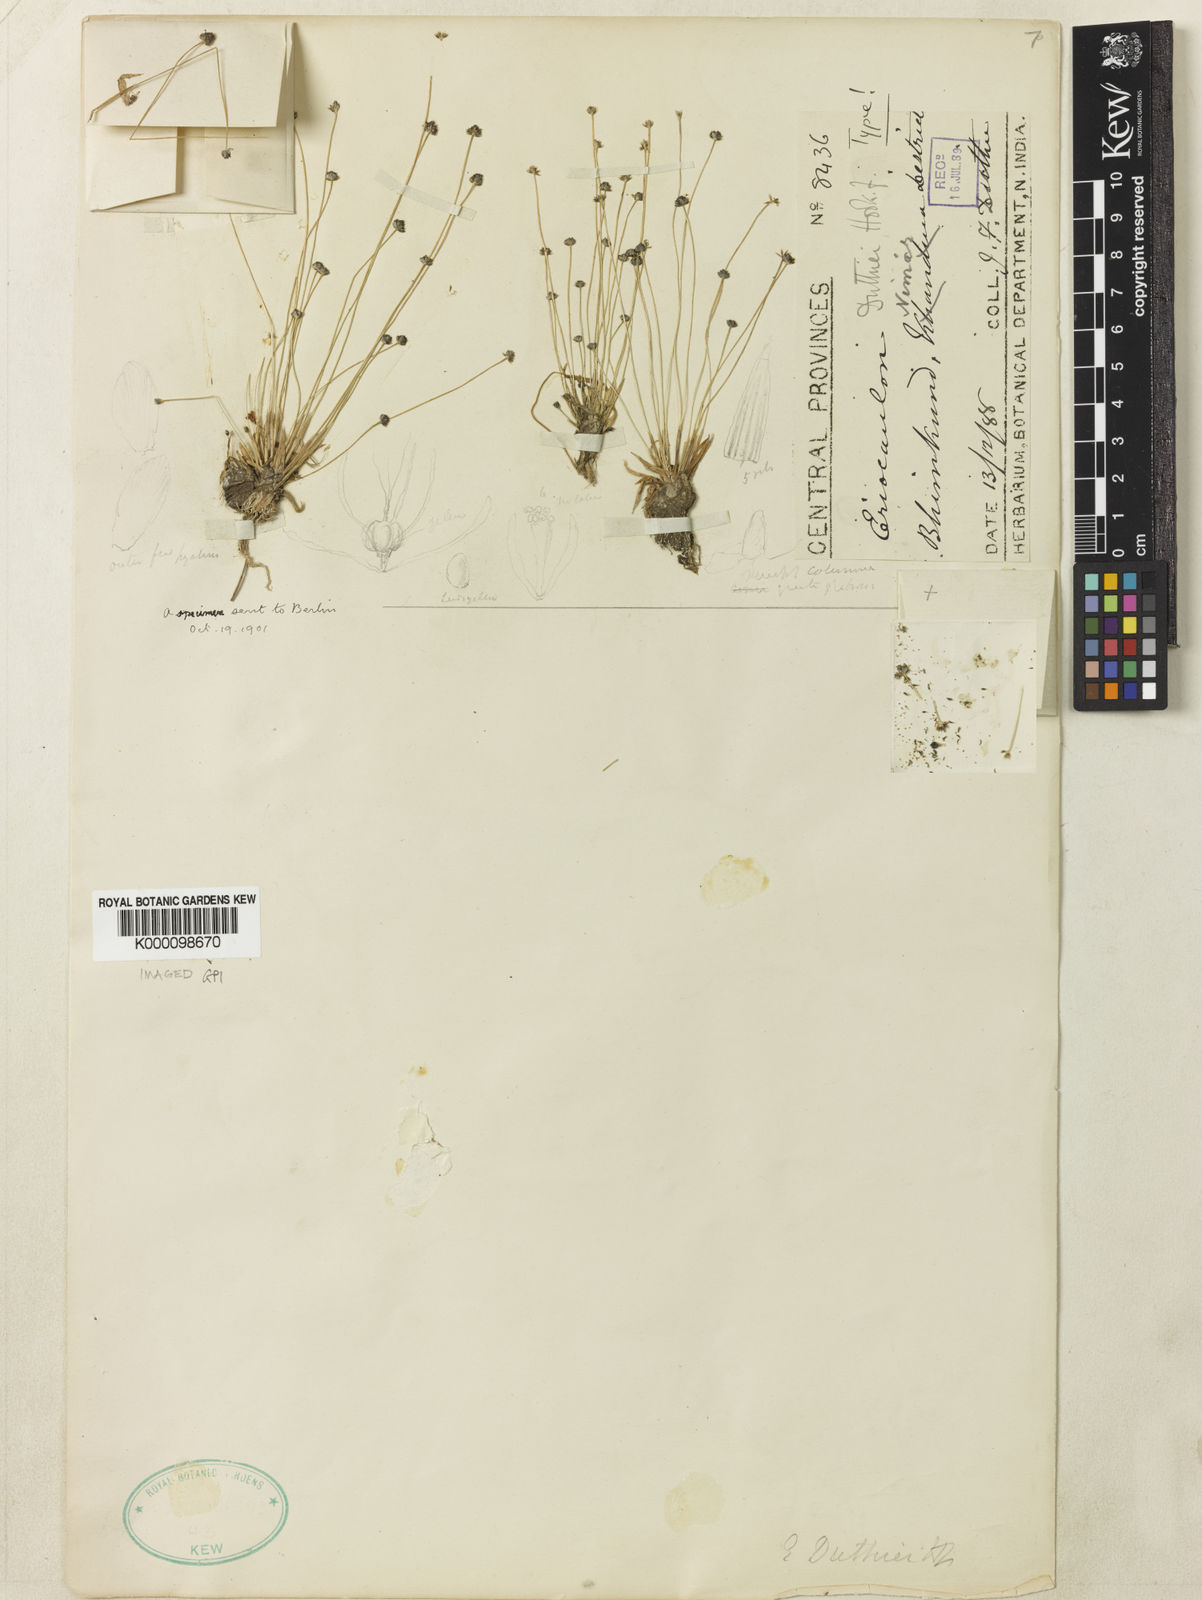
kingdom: Plantae
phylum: Tracheophyta
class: Liliopsida
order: Poales
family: Eriocaulaceae
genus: Eriocaulon
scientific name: Eriocaulon duthiei
